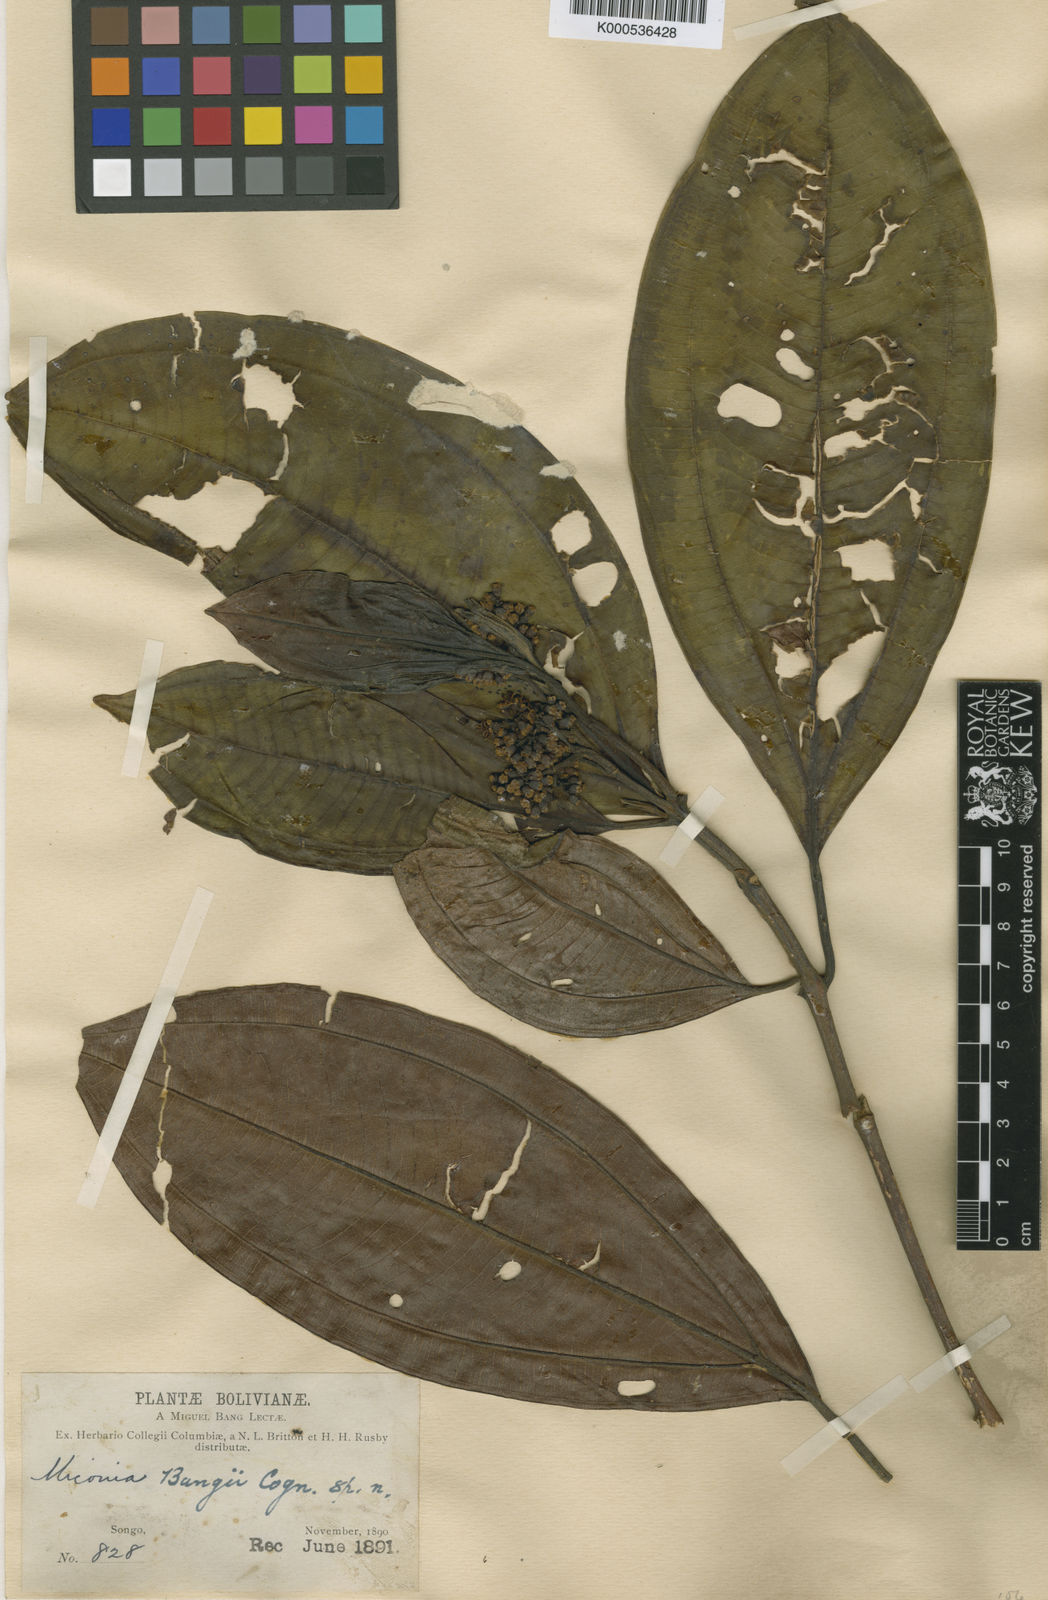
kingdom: Plantae
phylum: Tracheophyta
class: Magnoliopsida
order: Myrtales
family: Melastomataceae
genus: Miconia
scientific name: Miconia bangii
